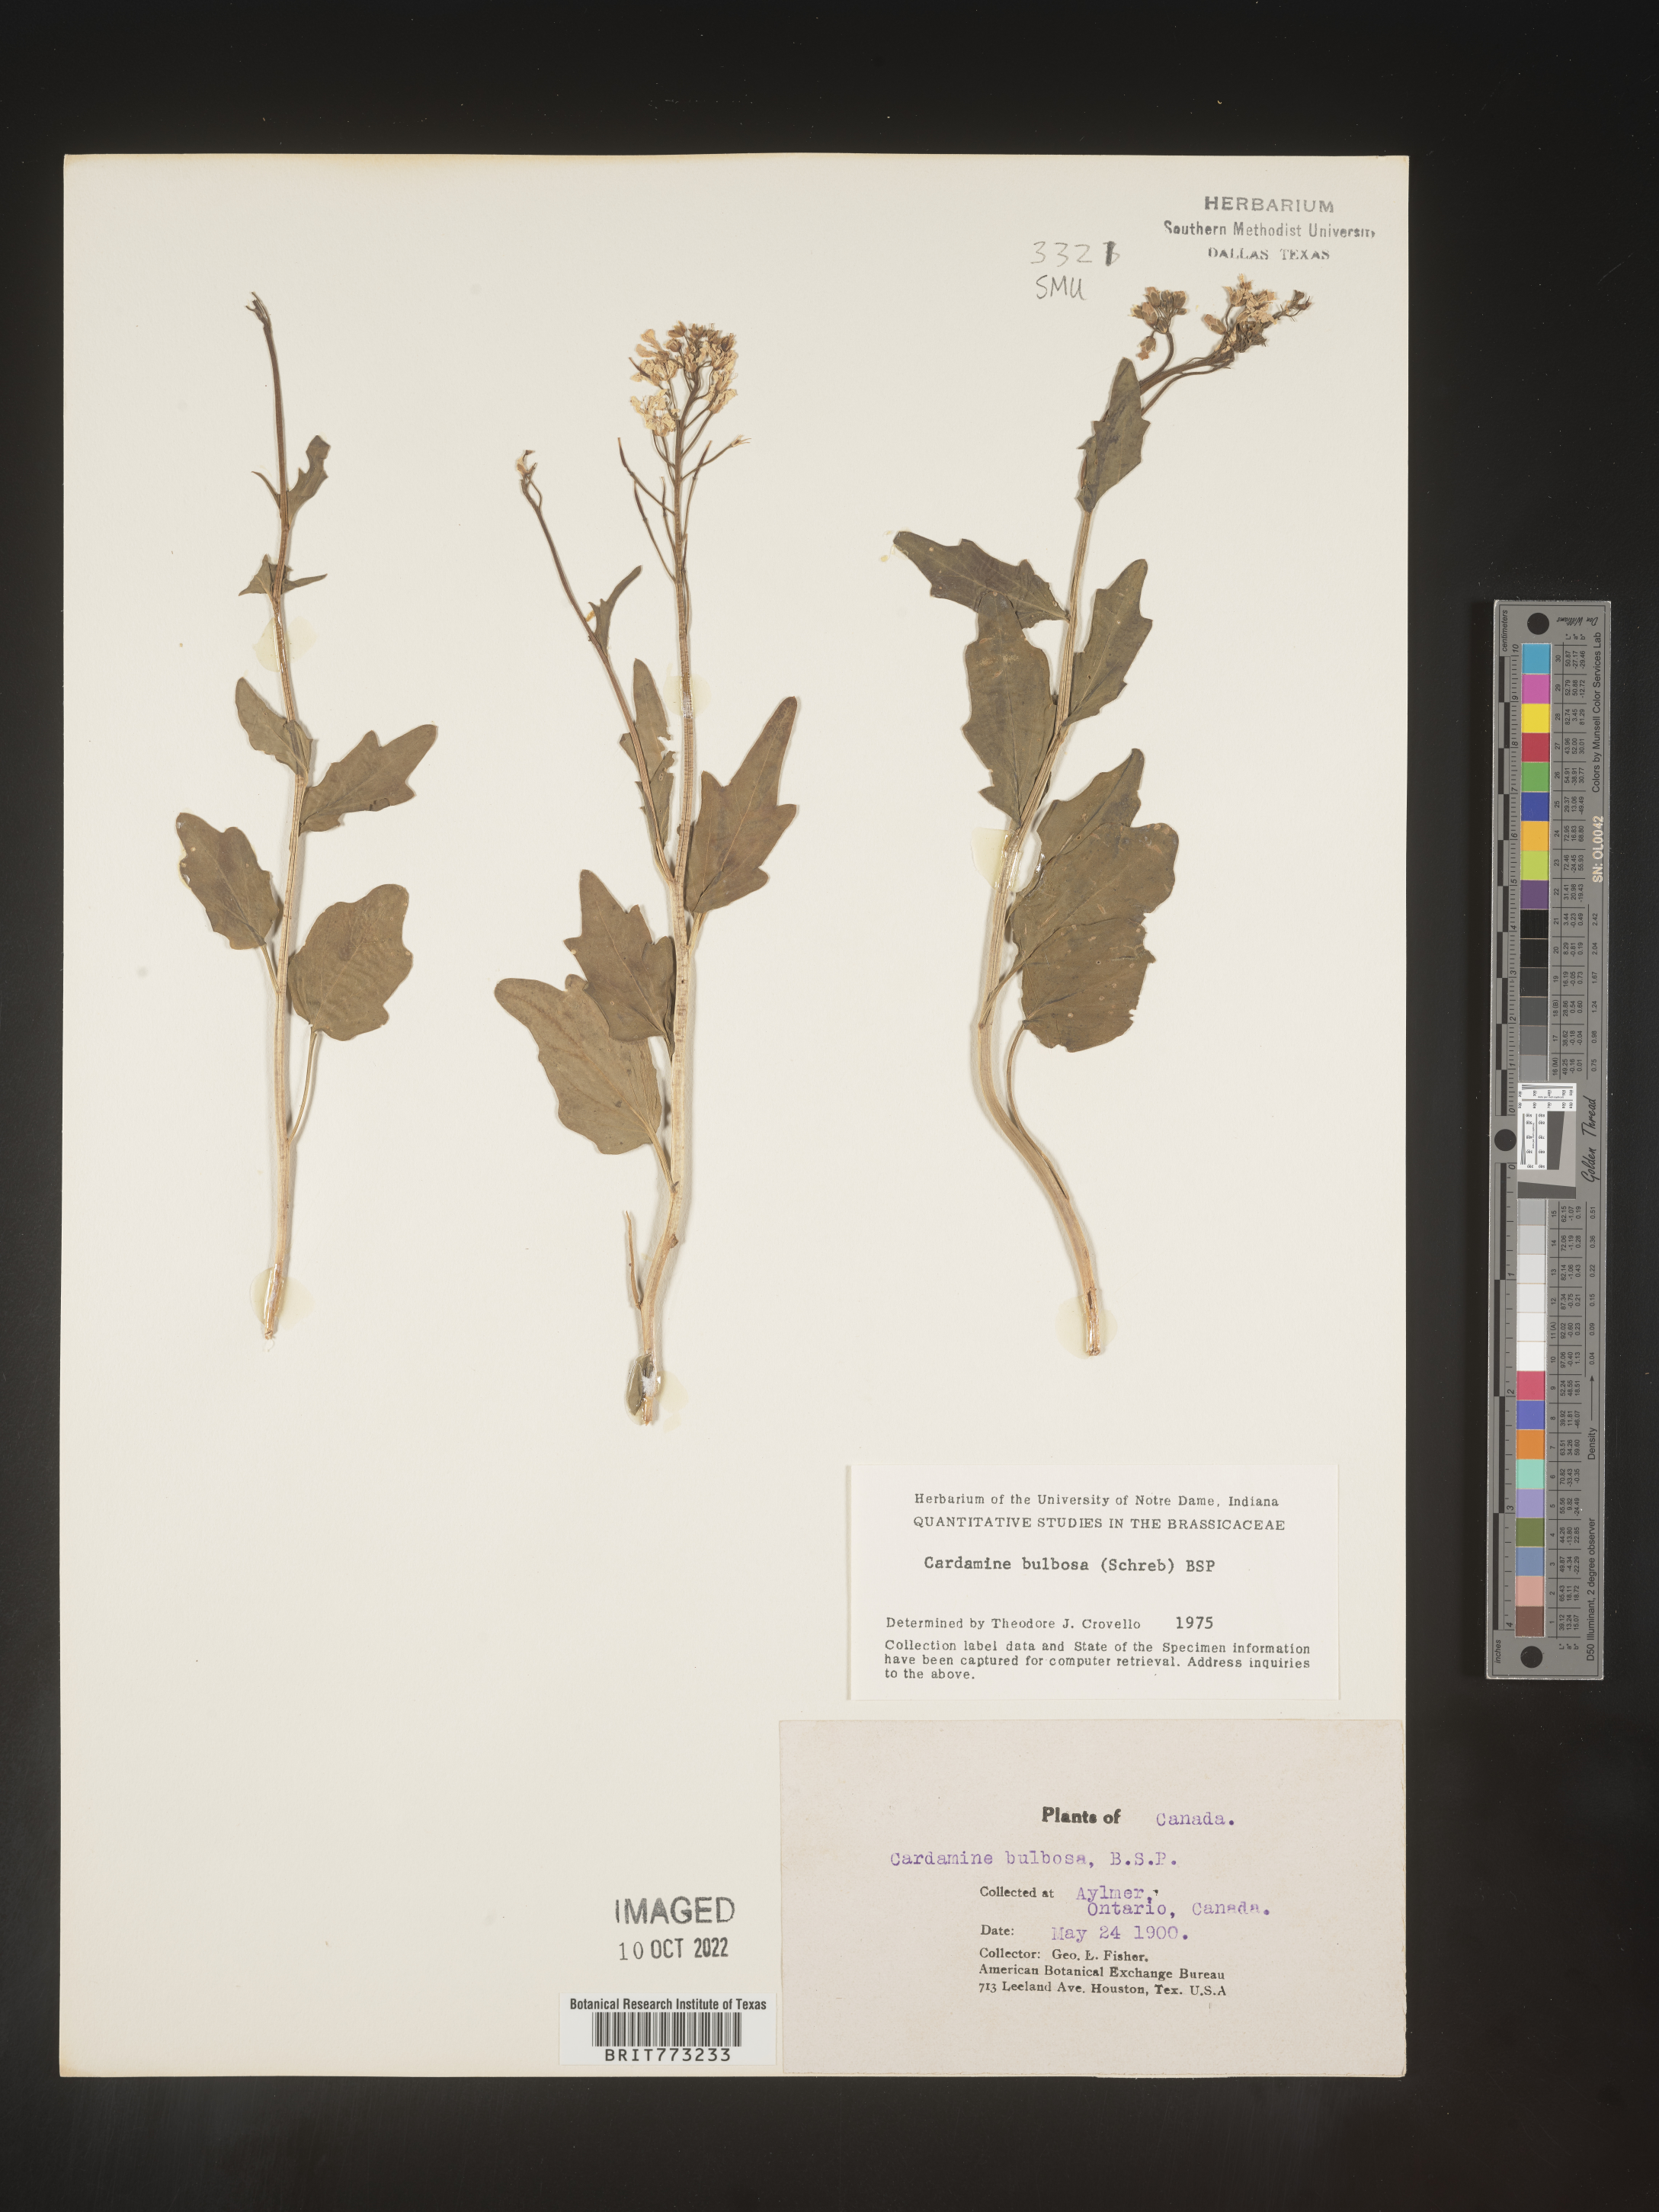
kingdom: Plantae
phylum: Tracheophyta
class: Magnoliopsida
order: Brassicales
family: Brassicaceae
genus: Cardamine
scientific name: Cardamine bulbosa
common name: Spring cress
